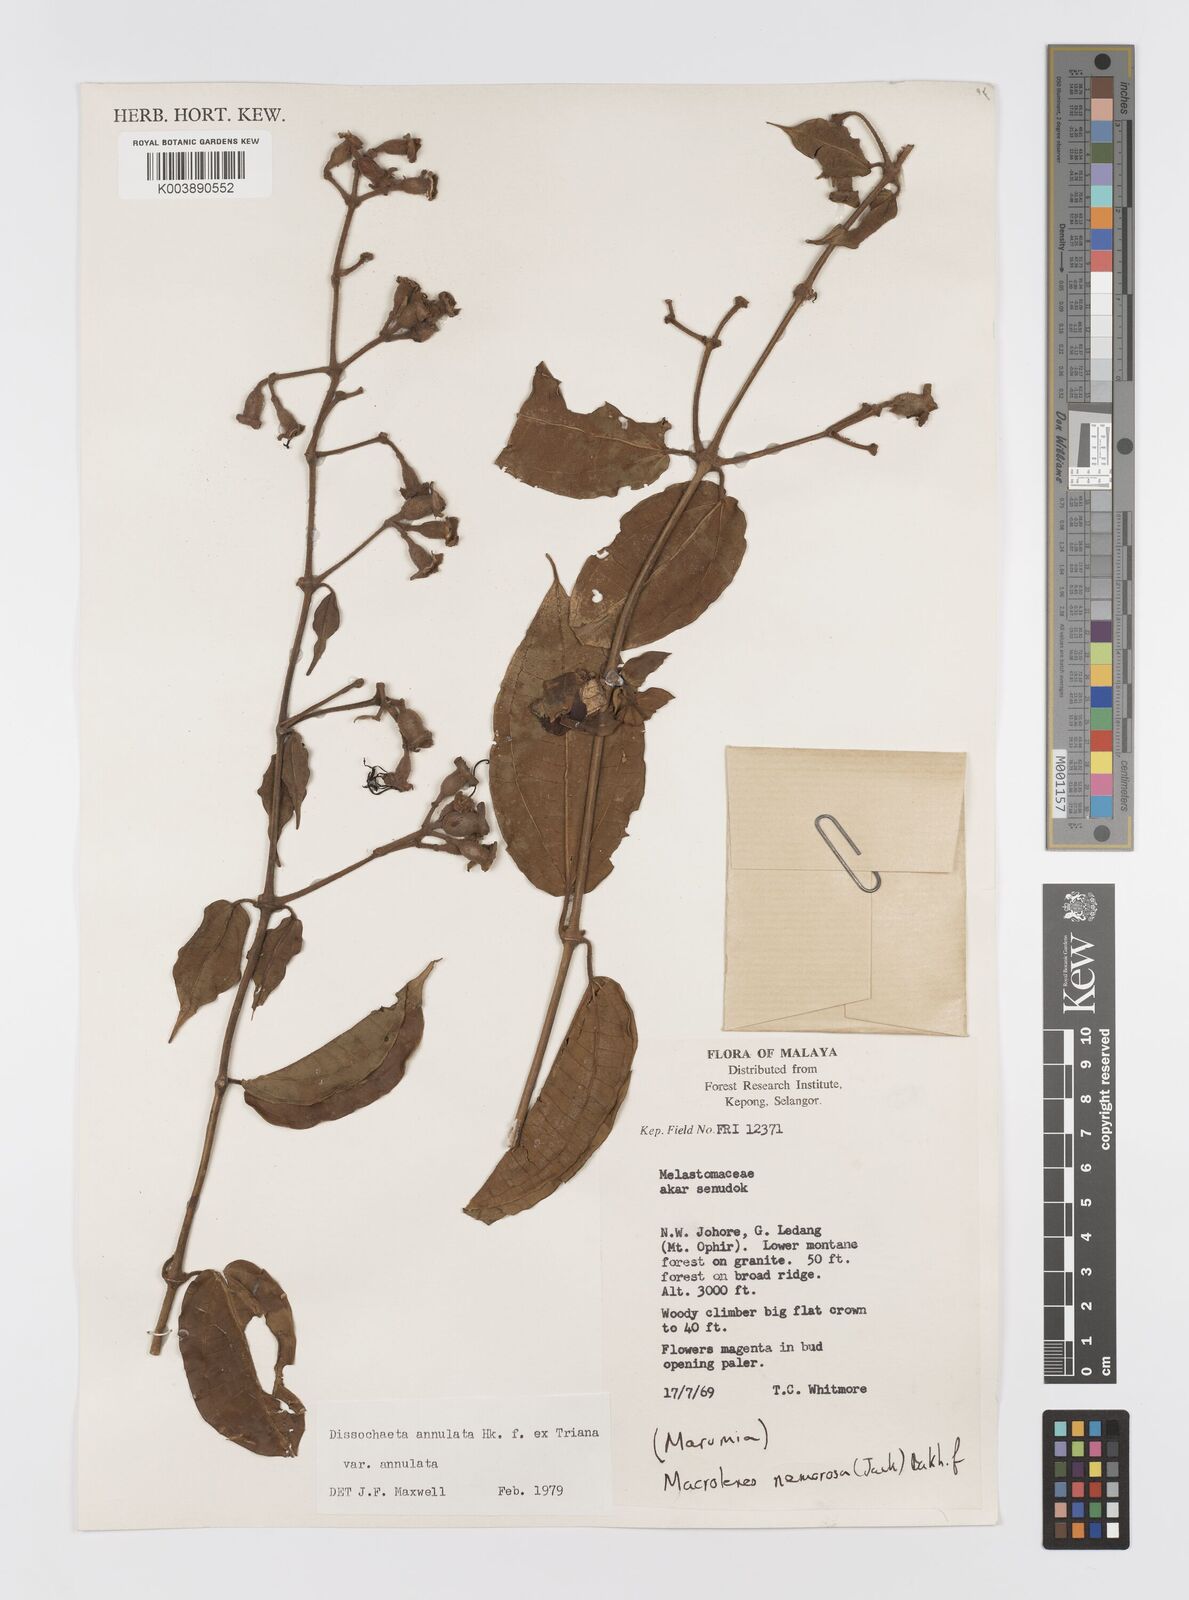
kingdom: Plantae
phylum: Tracheophyta
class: Magnoliopsida
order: Myrtales
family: Melastomataceae
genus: Dissochaeta
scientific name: Dissochaeta annulata
